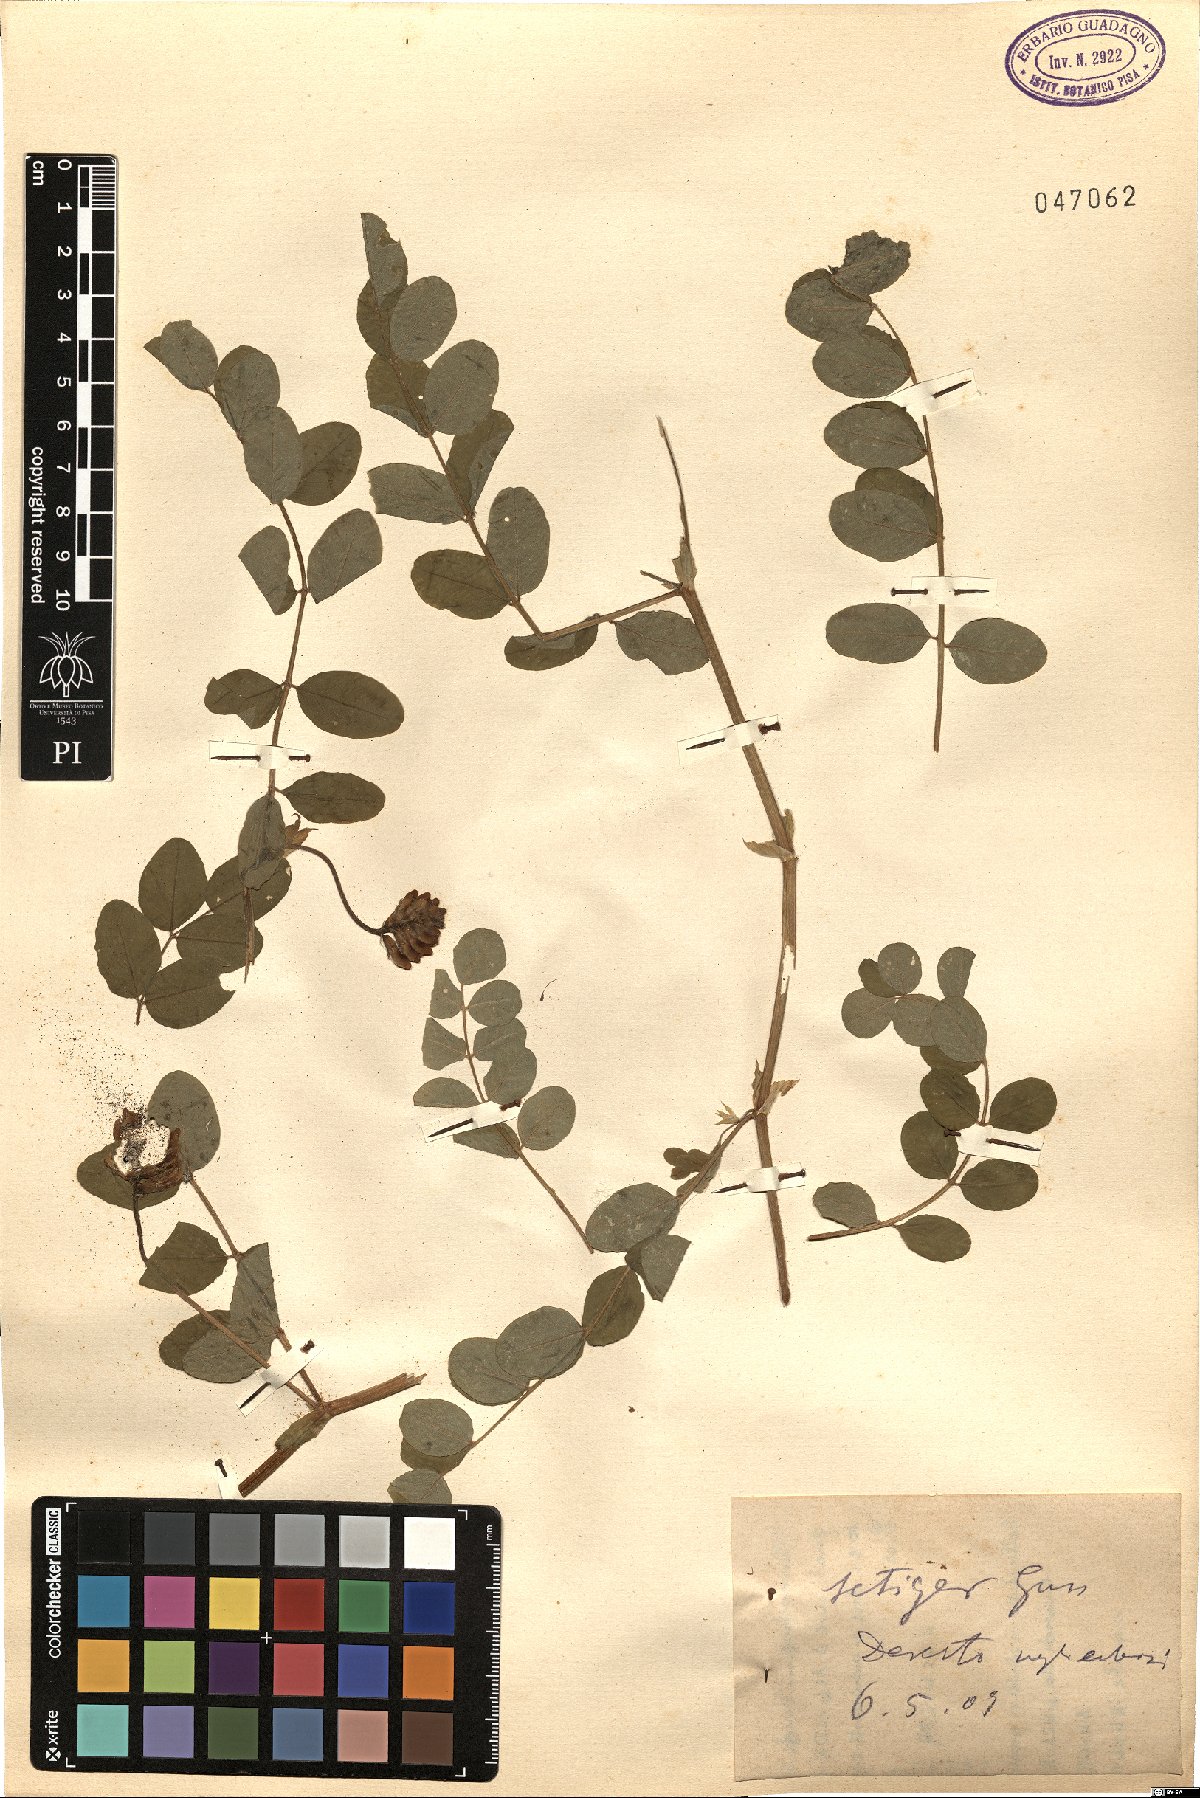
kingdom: Plantae
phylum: Tracheophyta
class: Magnoliopsida
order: Fabales
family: Fabaceae
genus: Astragalus
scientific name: Astragalus strizhovae
